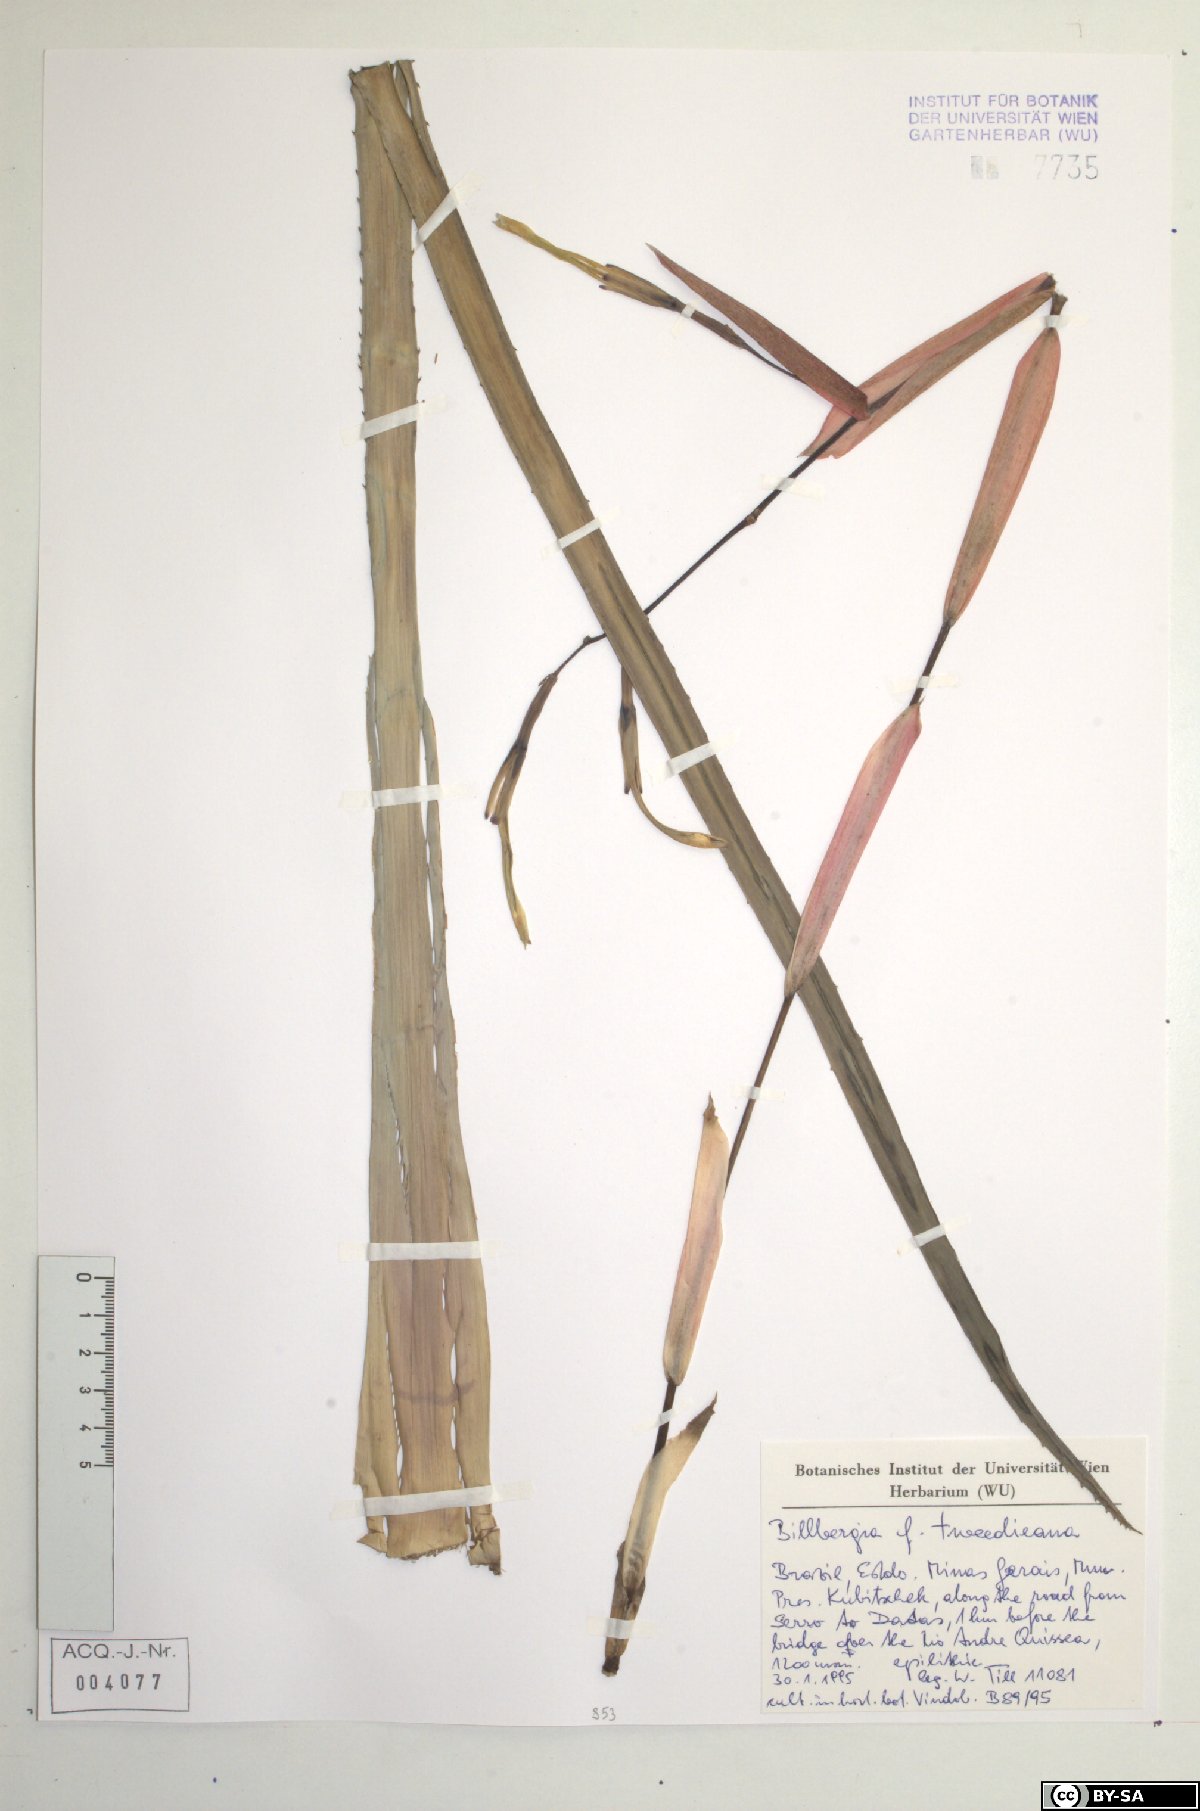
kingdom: Plantae
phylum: Tracheophyta
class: Liliopsida
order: Poales
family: Bromeliaceae
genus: Billbergia
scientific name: Billbergia tweedieana
